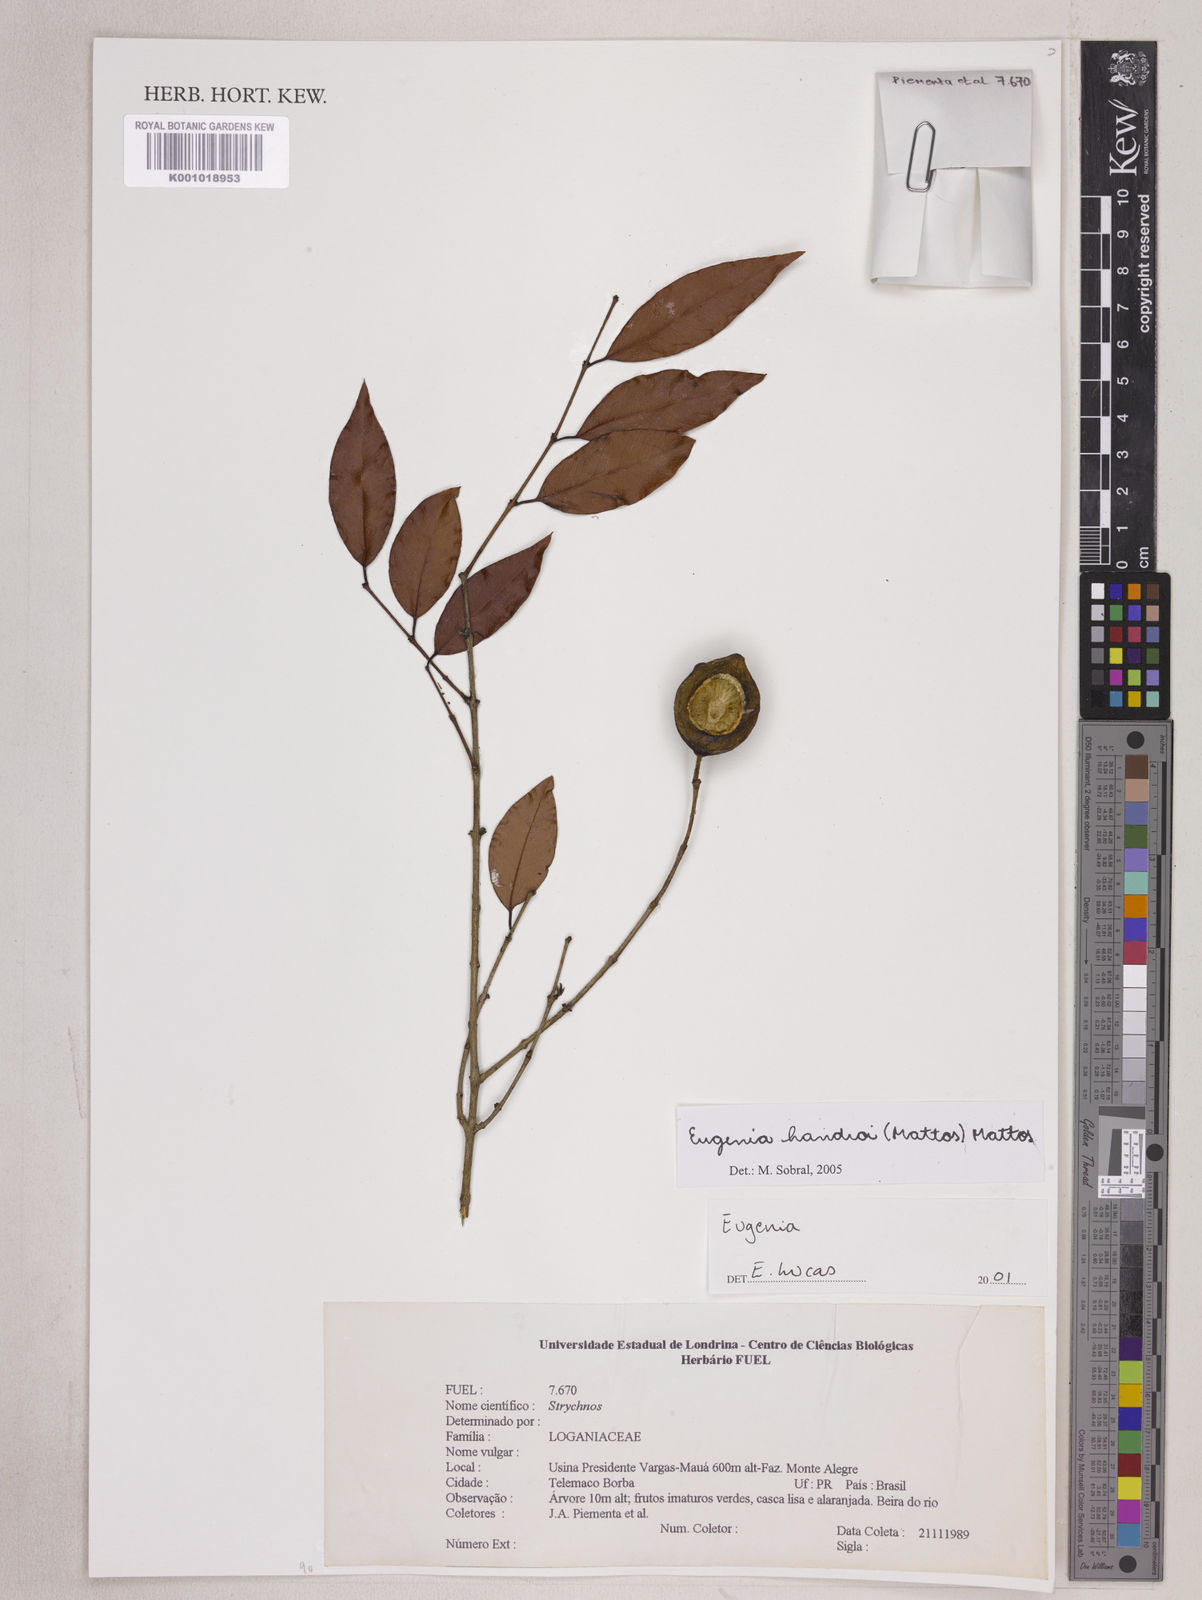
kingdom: Plantae
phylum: Tracheophyta
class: Magnoliopsida
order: Myrtales
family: Myrtaceae
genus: Eugenia
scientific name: Eugenia handroi
